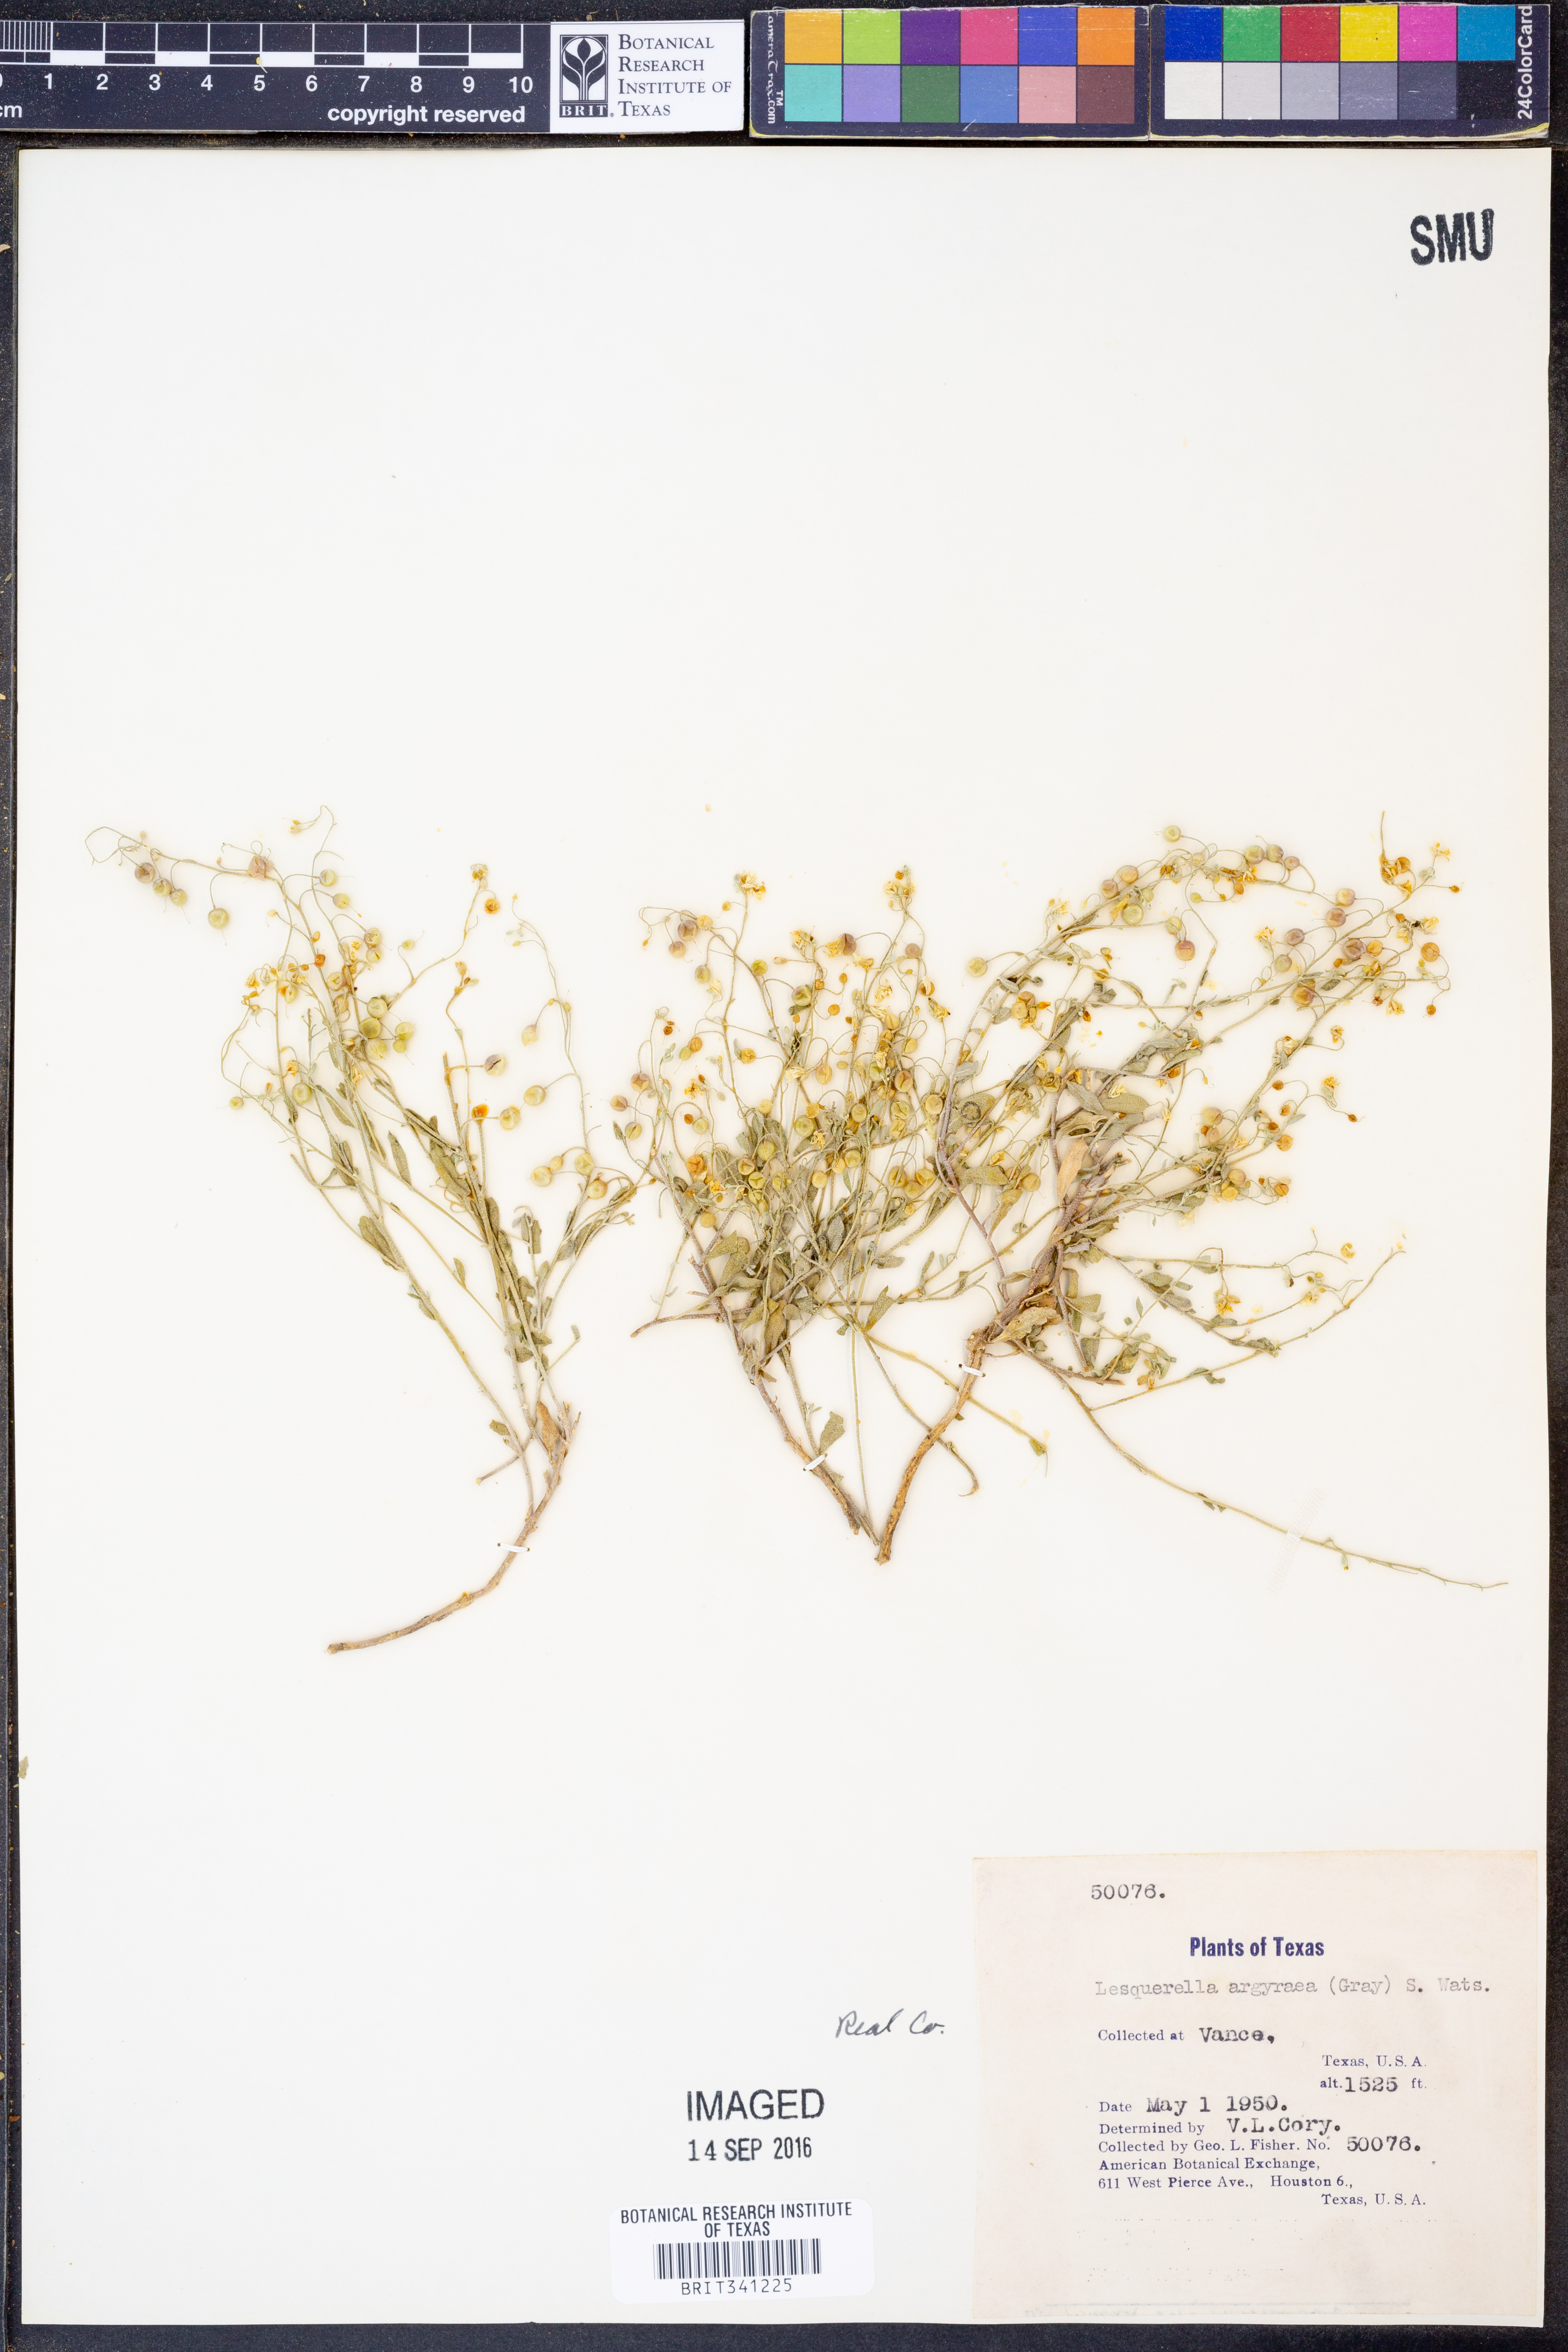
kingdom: Plantae
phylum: Tracheophyta
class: Magnoliopsida
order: Brassicales
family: Brassicaceae
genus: Physaria
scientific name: Physaria argyraea
